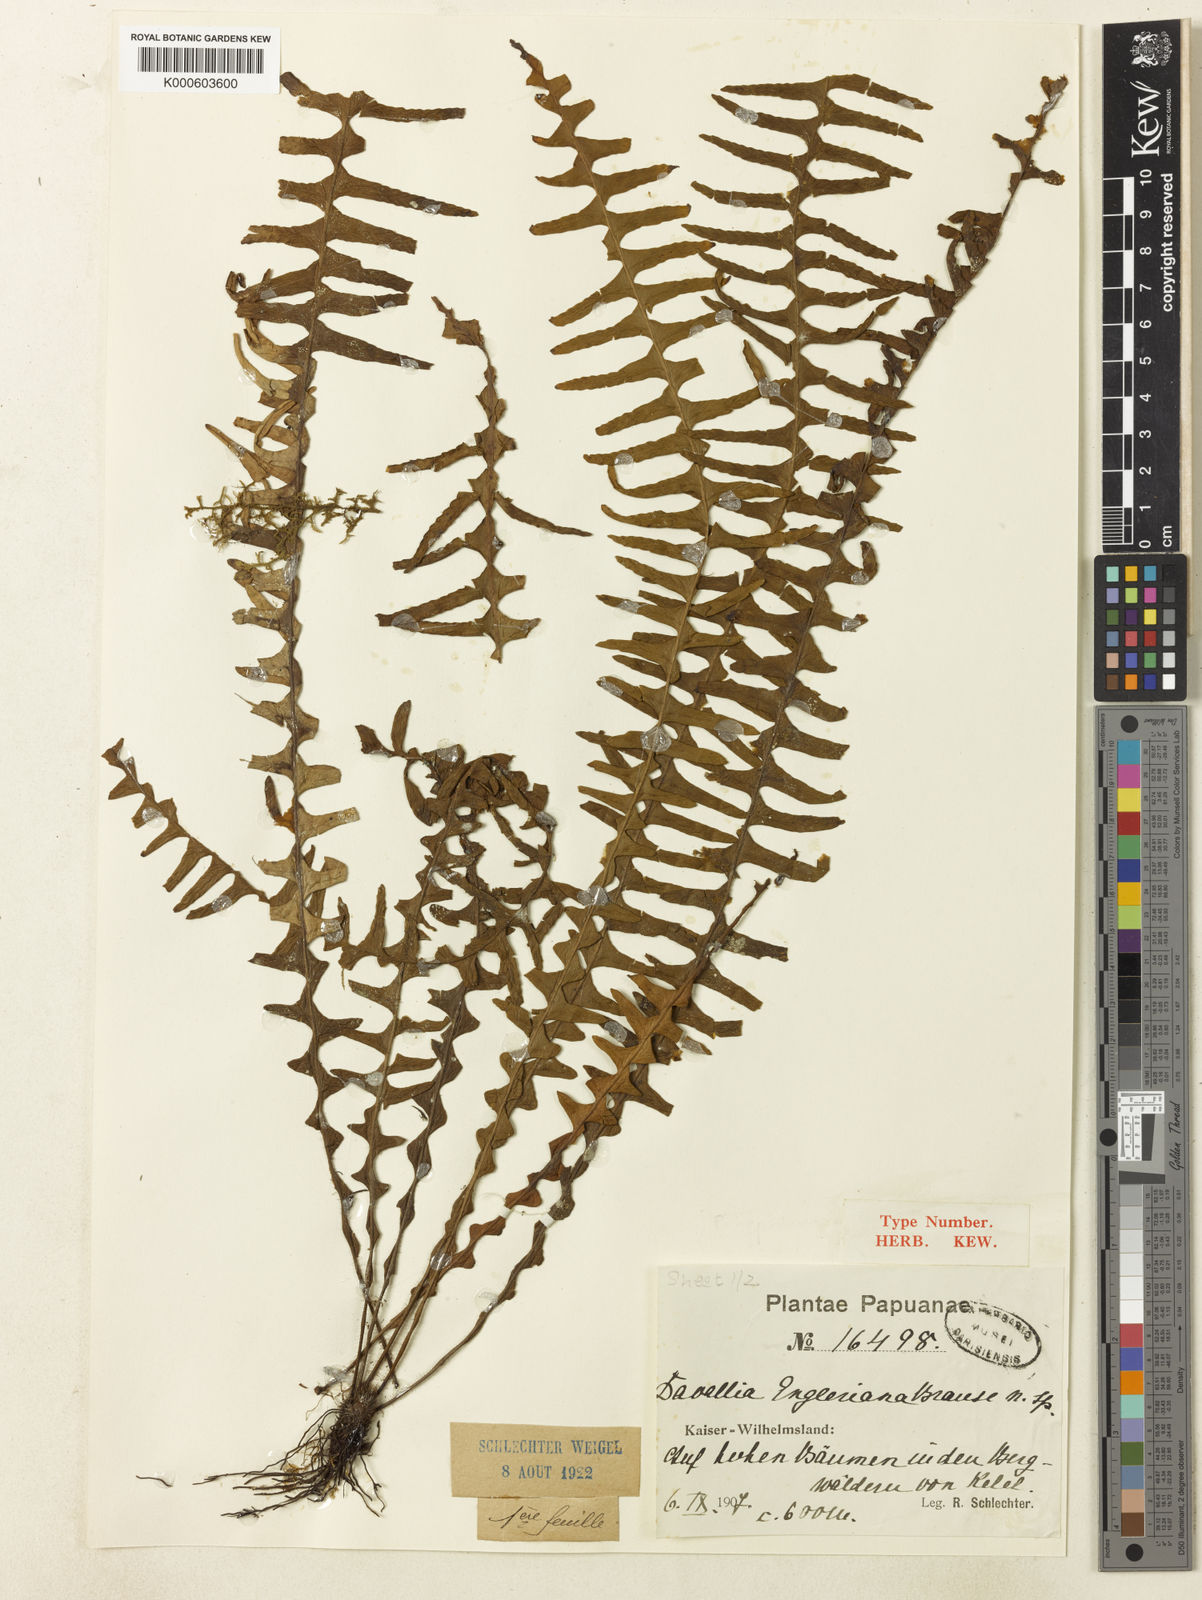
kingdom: Plantae
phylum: Tracheophyta
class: Polypodiopsida
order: Polypodiales
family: Polypodiaceae
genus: Prosaptia
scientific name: Prosaptia engleriana
